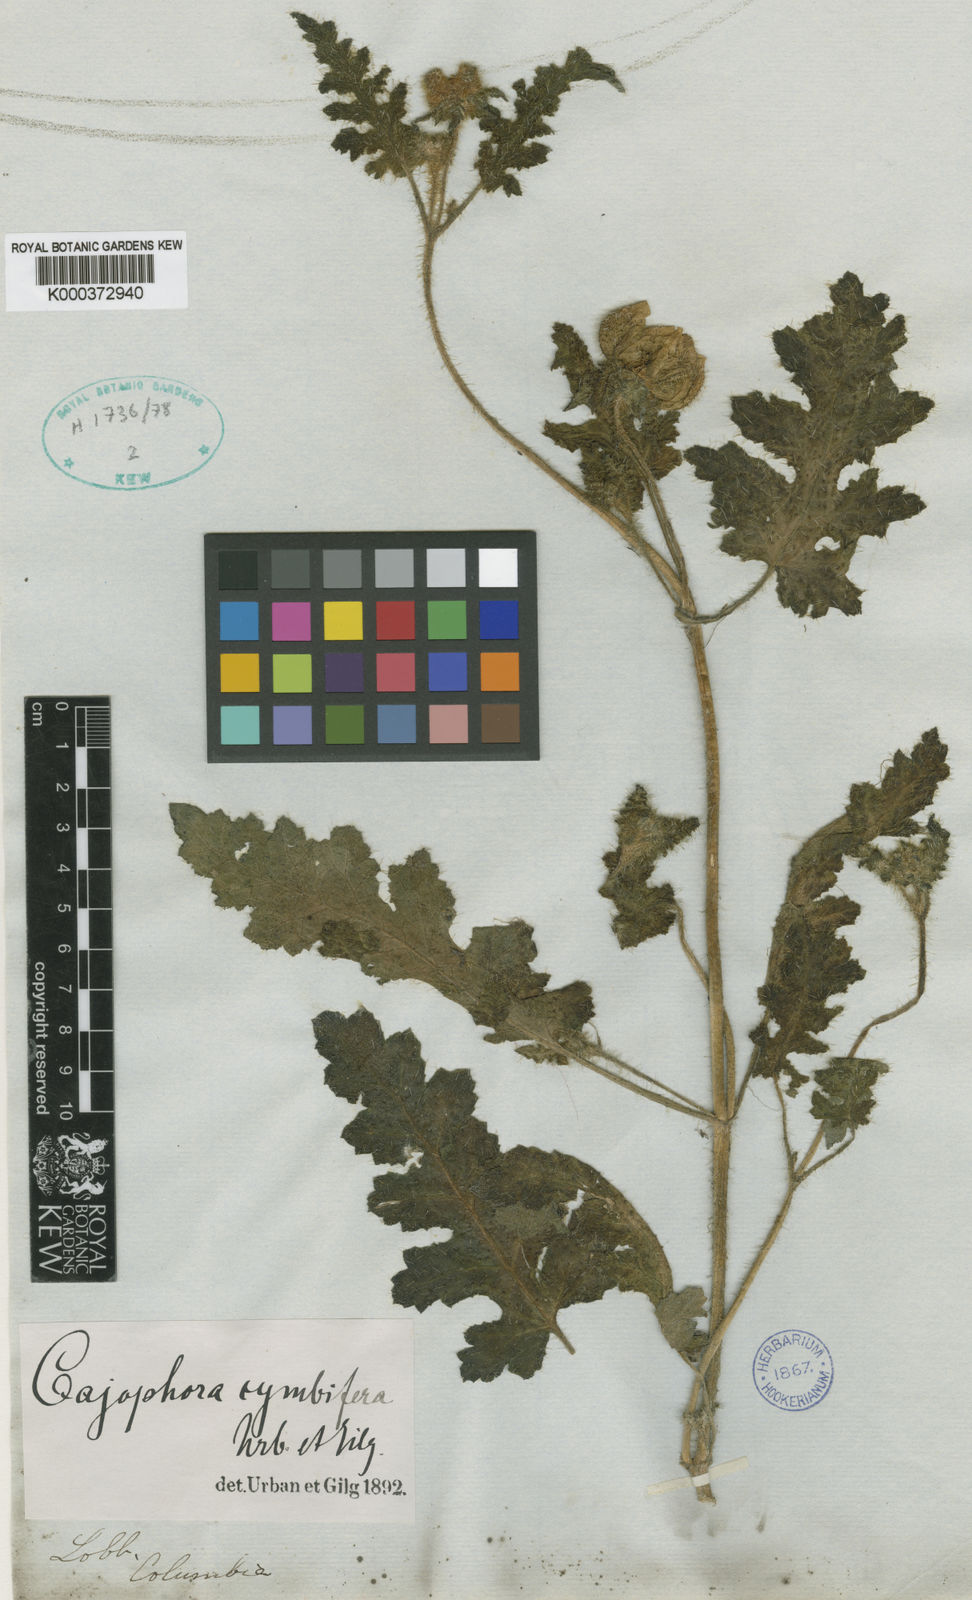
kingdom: Plantae
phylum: Tracheophyta
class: Magnoliopsida
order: Cornales
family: Loasaceae
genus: Caiophora
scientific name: Caiophora cirsiifolia
